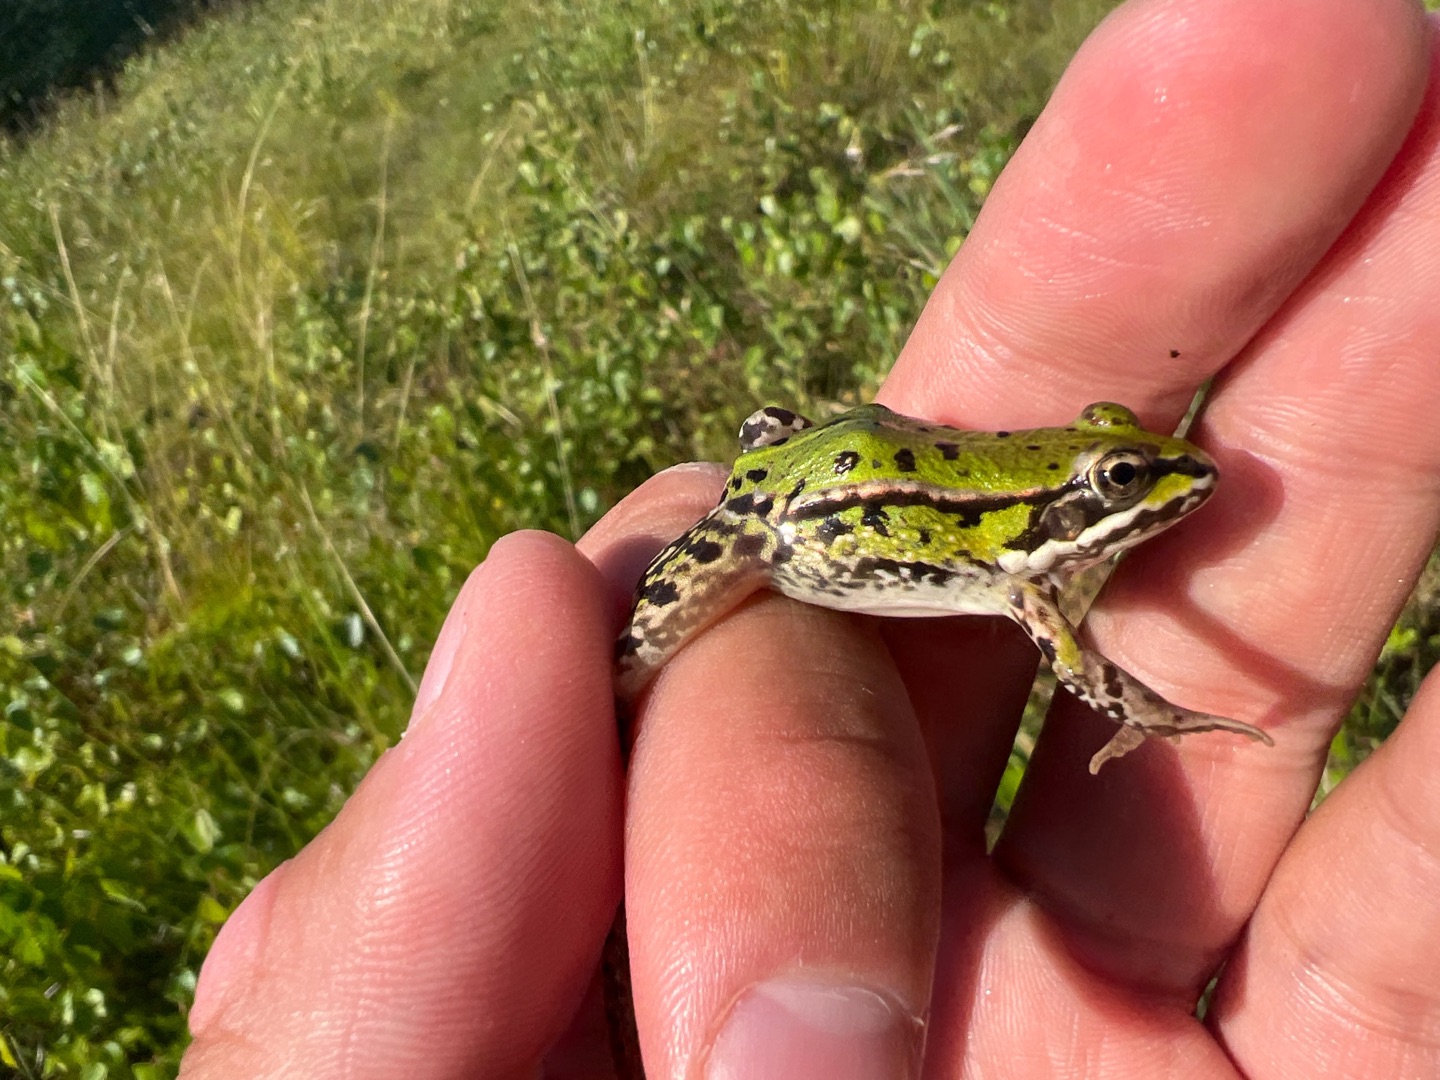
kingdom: Animalia
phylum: Chordata
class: Amphibia
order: Anura
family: Ranidae
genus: Pelophylax
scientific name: Pelophylax lessonae
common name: Grøn frø
